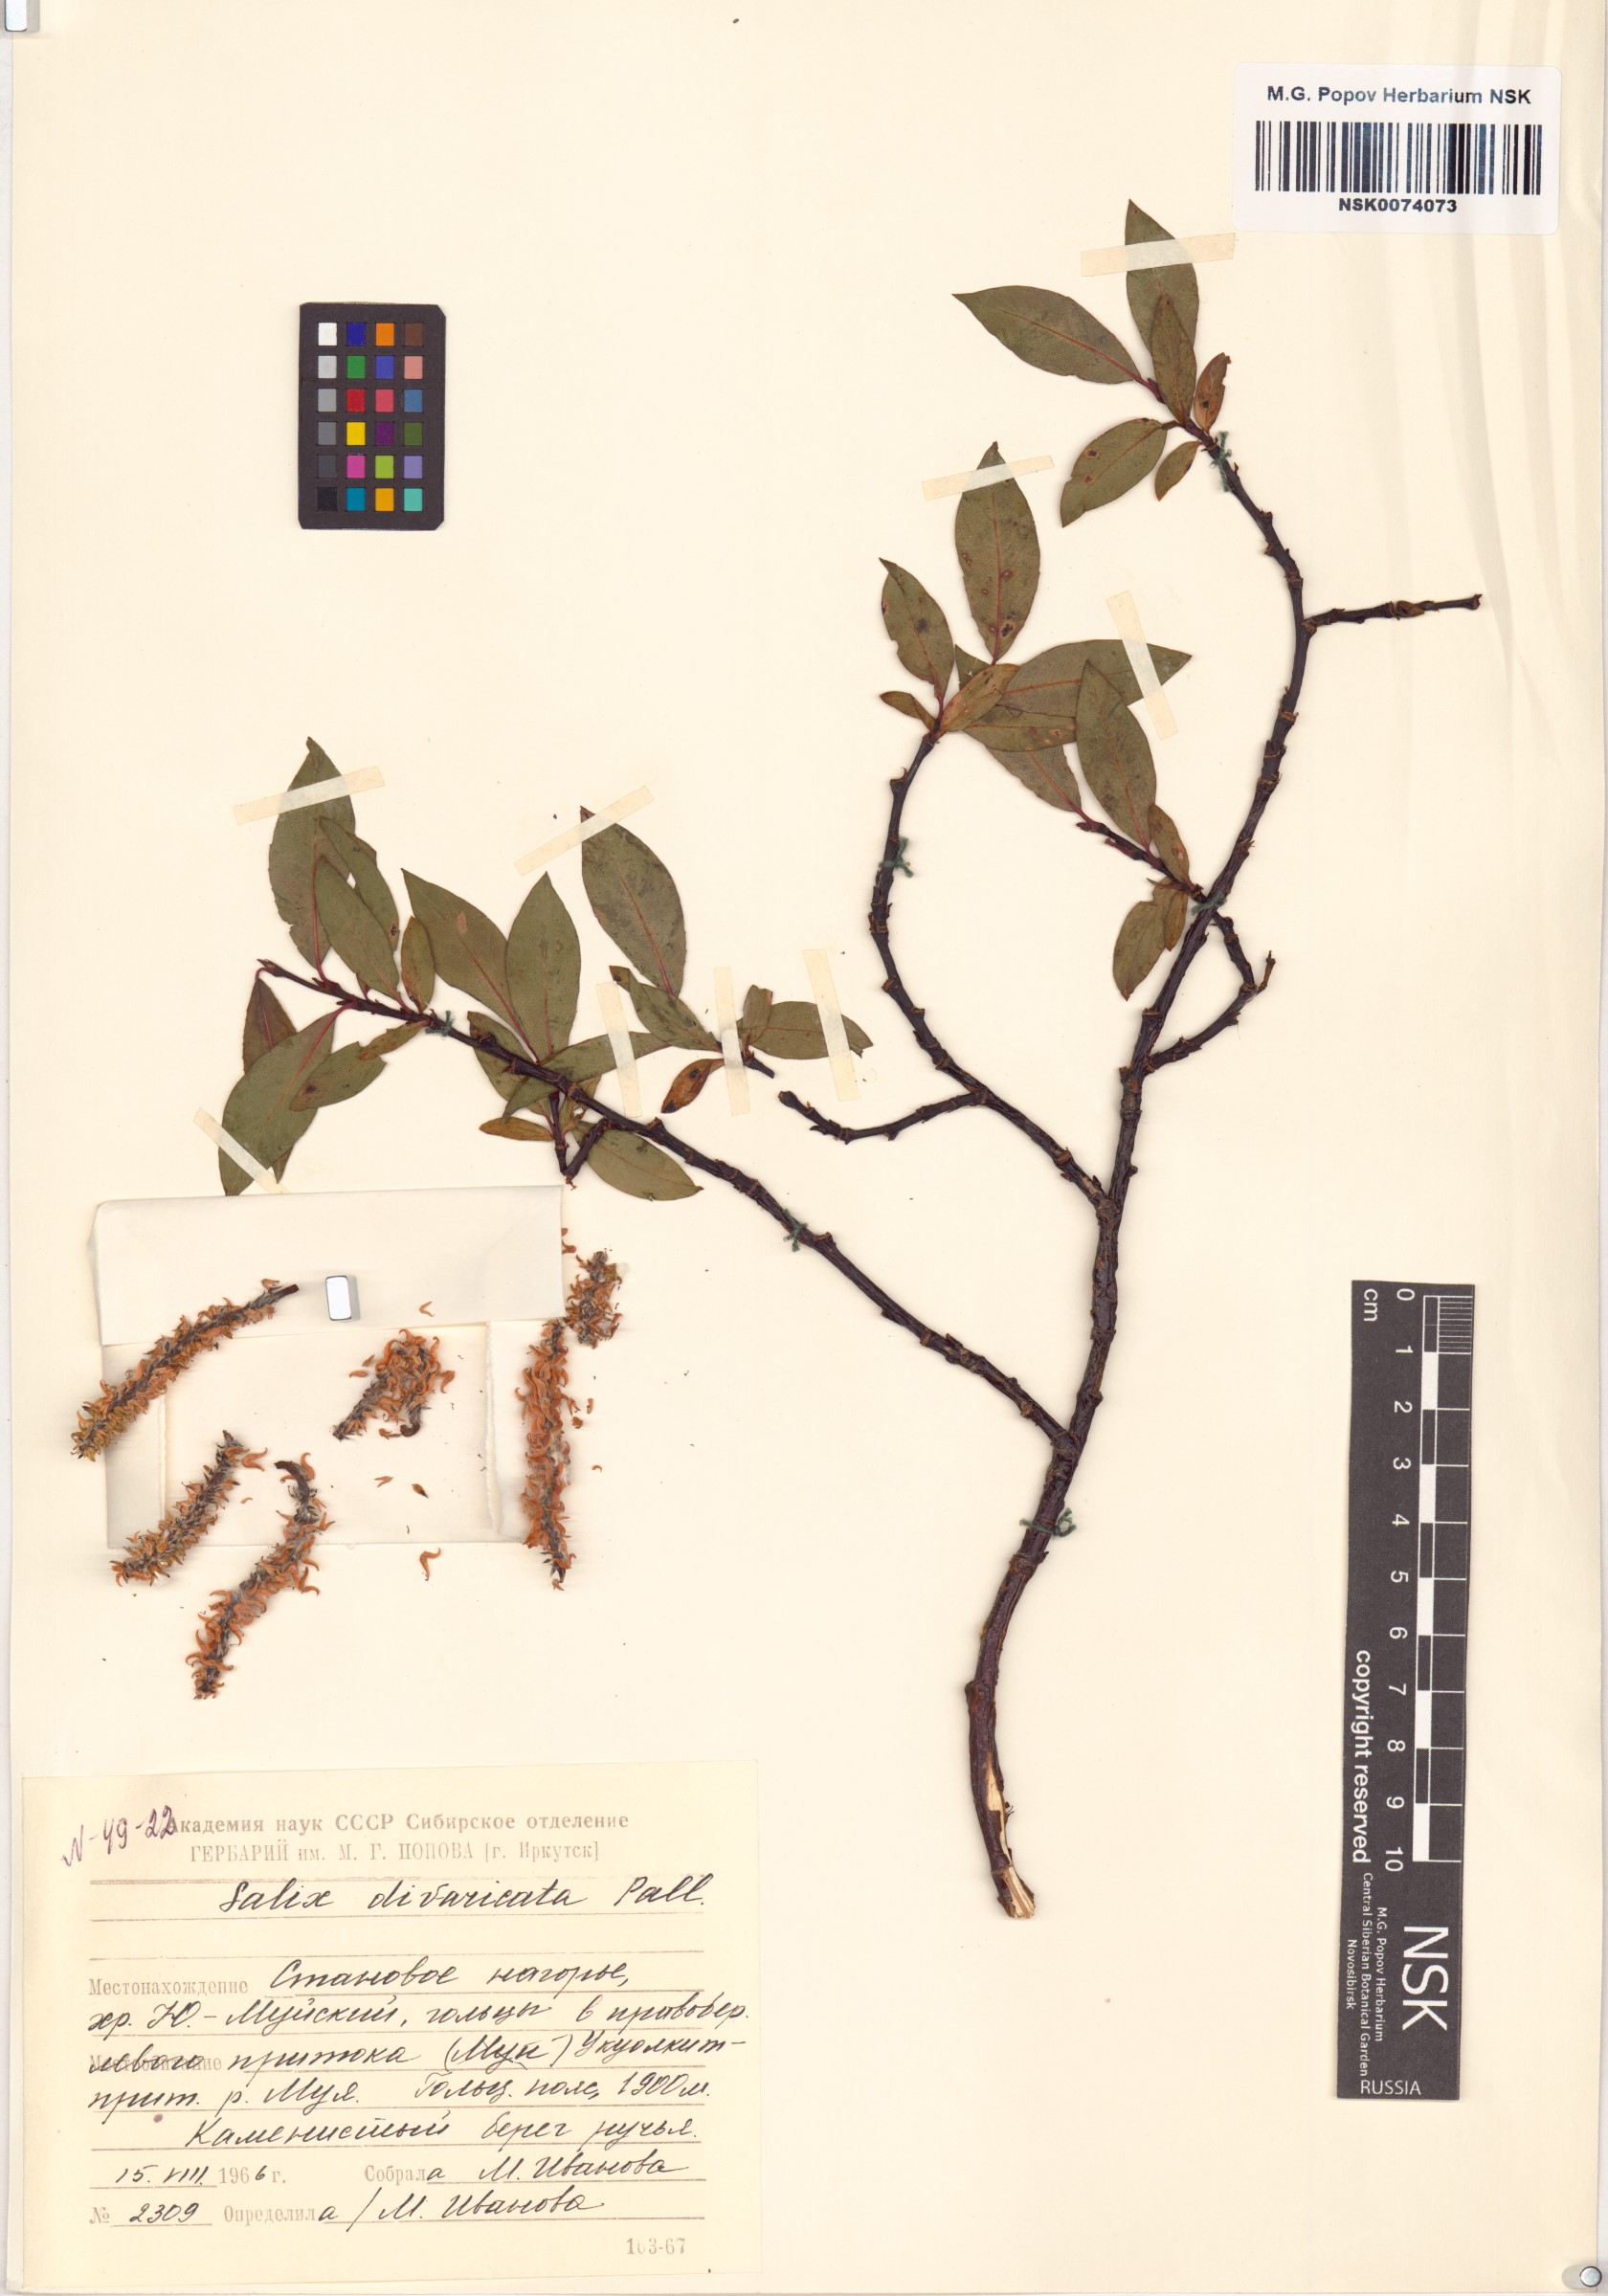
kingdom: Plantae
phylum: Tracheophyta
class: Magnoliopsida
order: Malpighiales
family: Salicaceae
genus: Salix
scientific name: Salix divaricata
